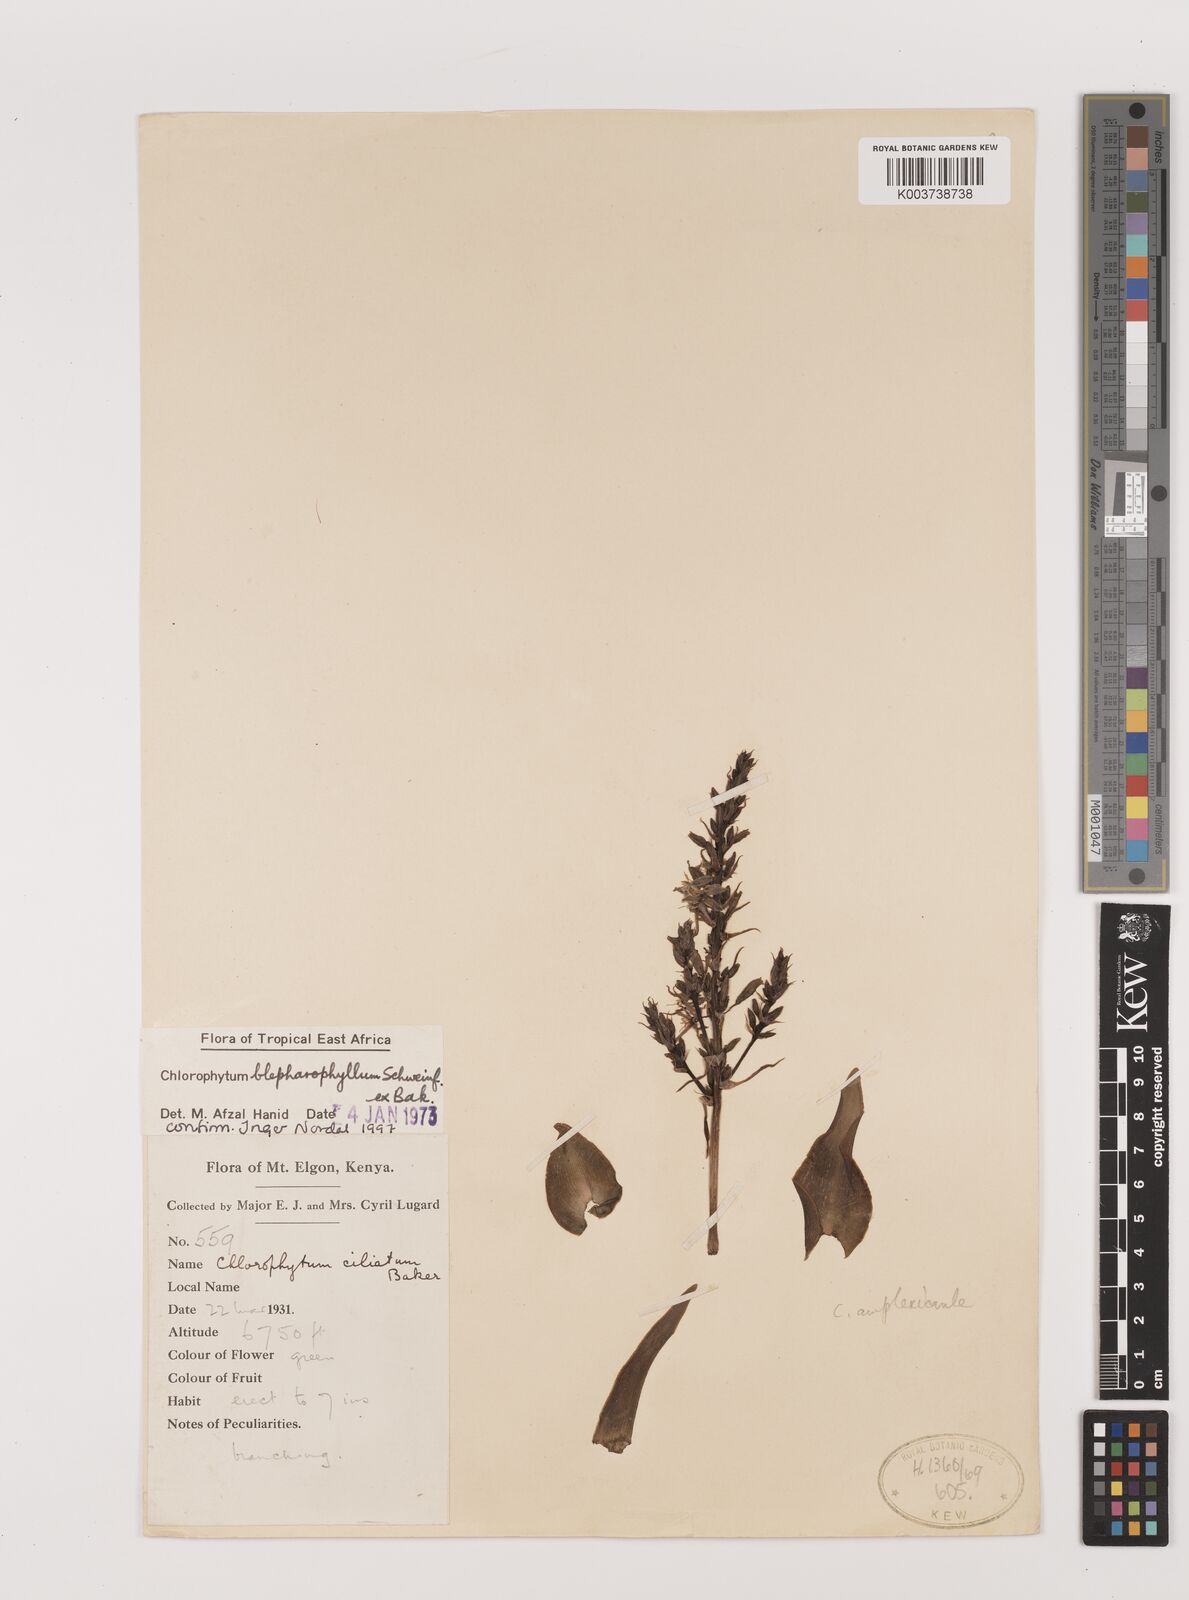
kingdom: Plantae
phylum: Tracheophyta
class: Liliopsida
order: Asparagales
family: Asparagaceae
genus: Chlorophytum
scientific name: Chlorophytum blepharophyllum
